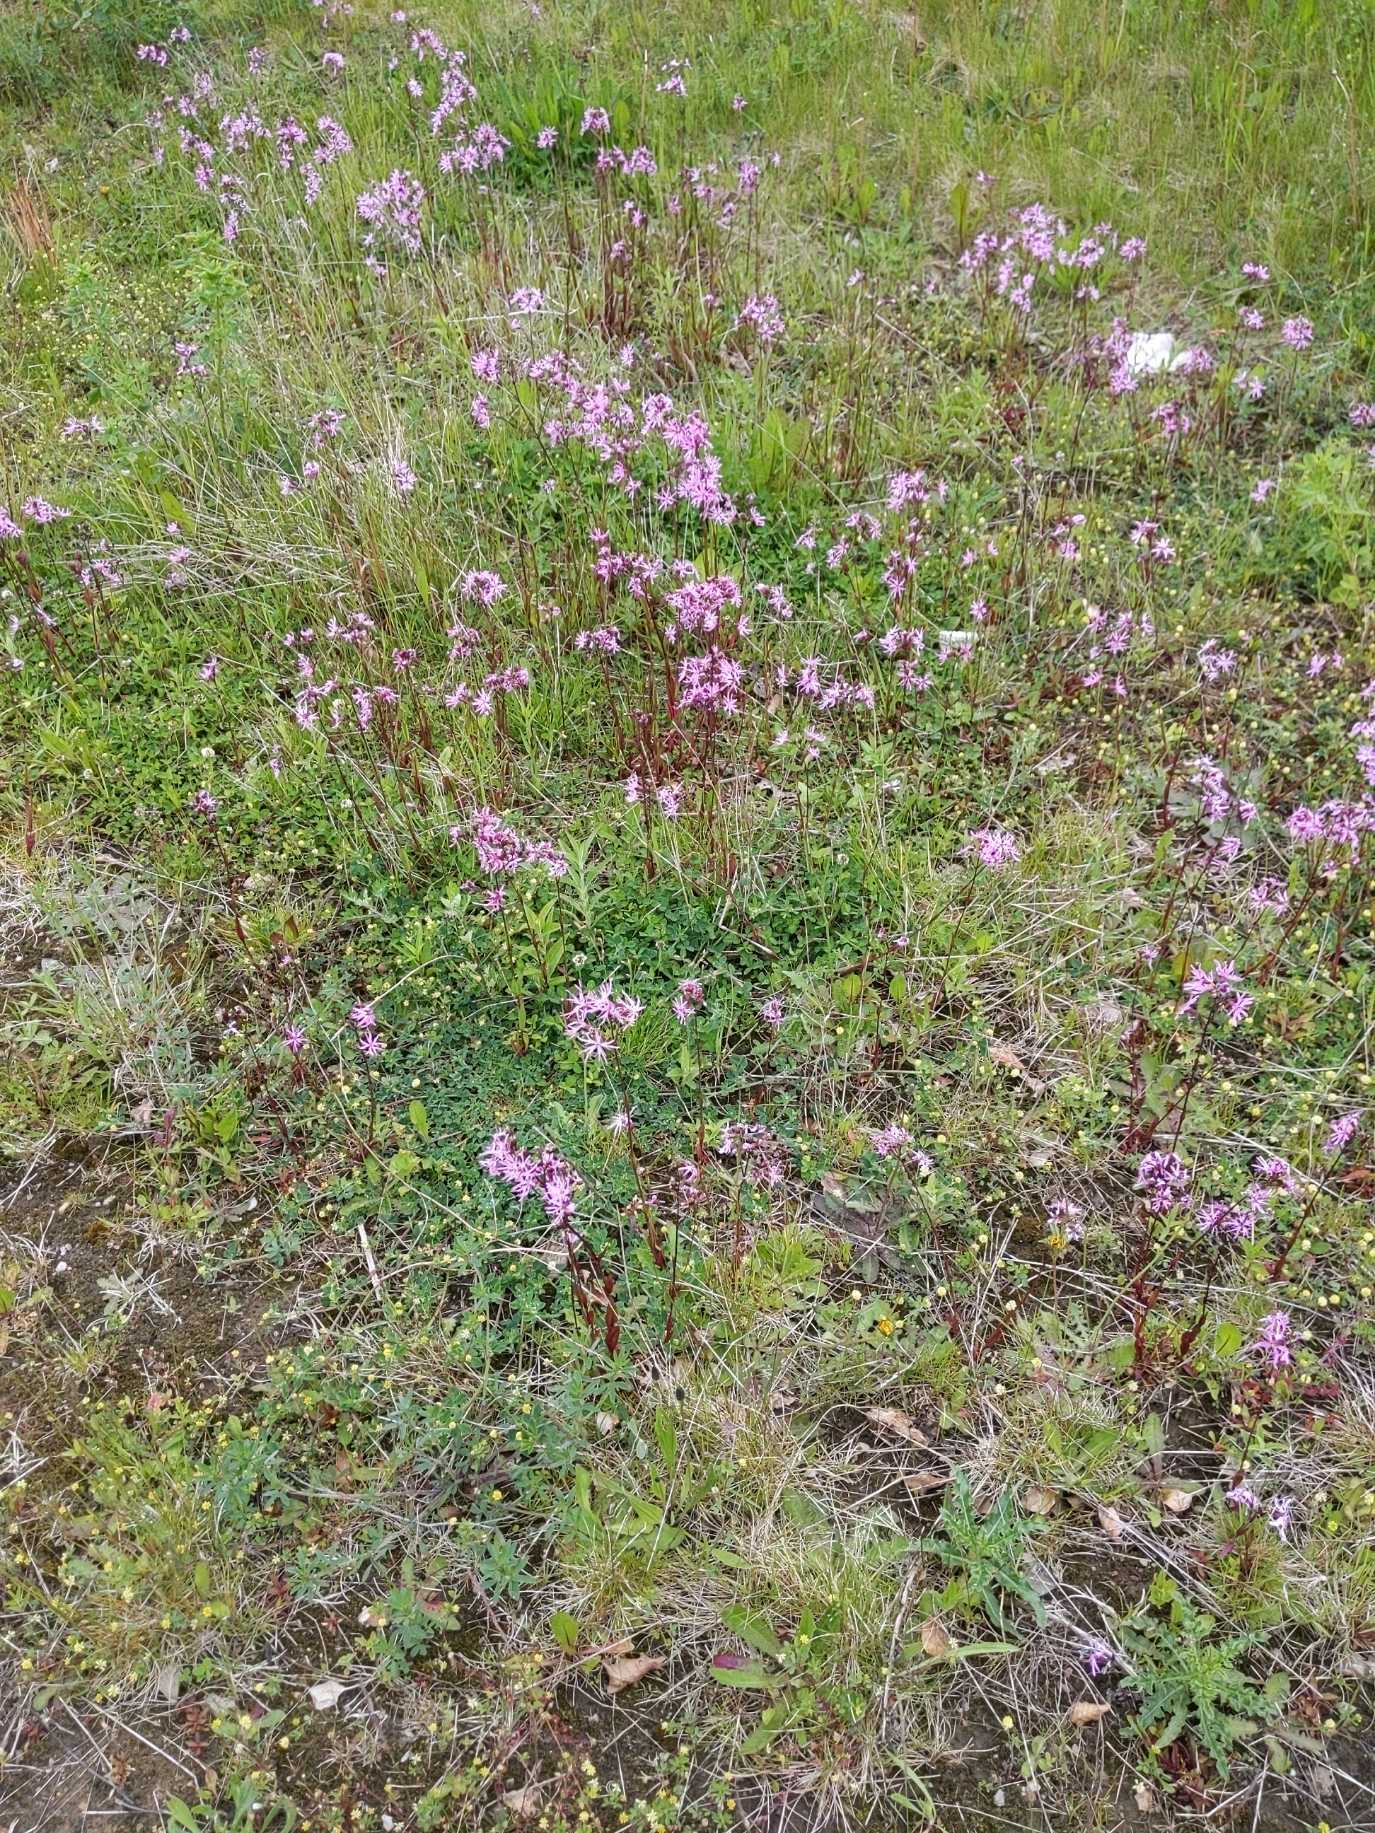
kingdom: Plantae
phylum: Tracheophyta
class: Magnoliopsida
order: Caryophyllales
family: Caryophyllaceae
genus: Silene
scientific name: Silene flos-cuculi
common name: Trævlekrone
